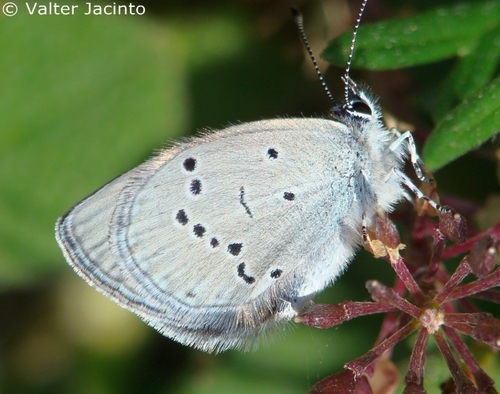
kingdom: Animalia
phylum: Arthropoda
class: Insecta
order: Lepidoptera
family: Lycaenidae
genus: Cupido
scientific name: Cupido lorquinii
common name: Lorquin’s blue
